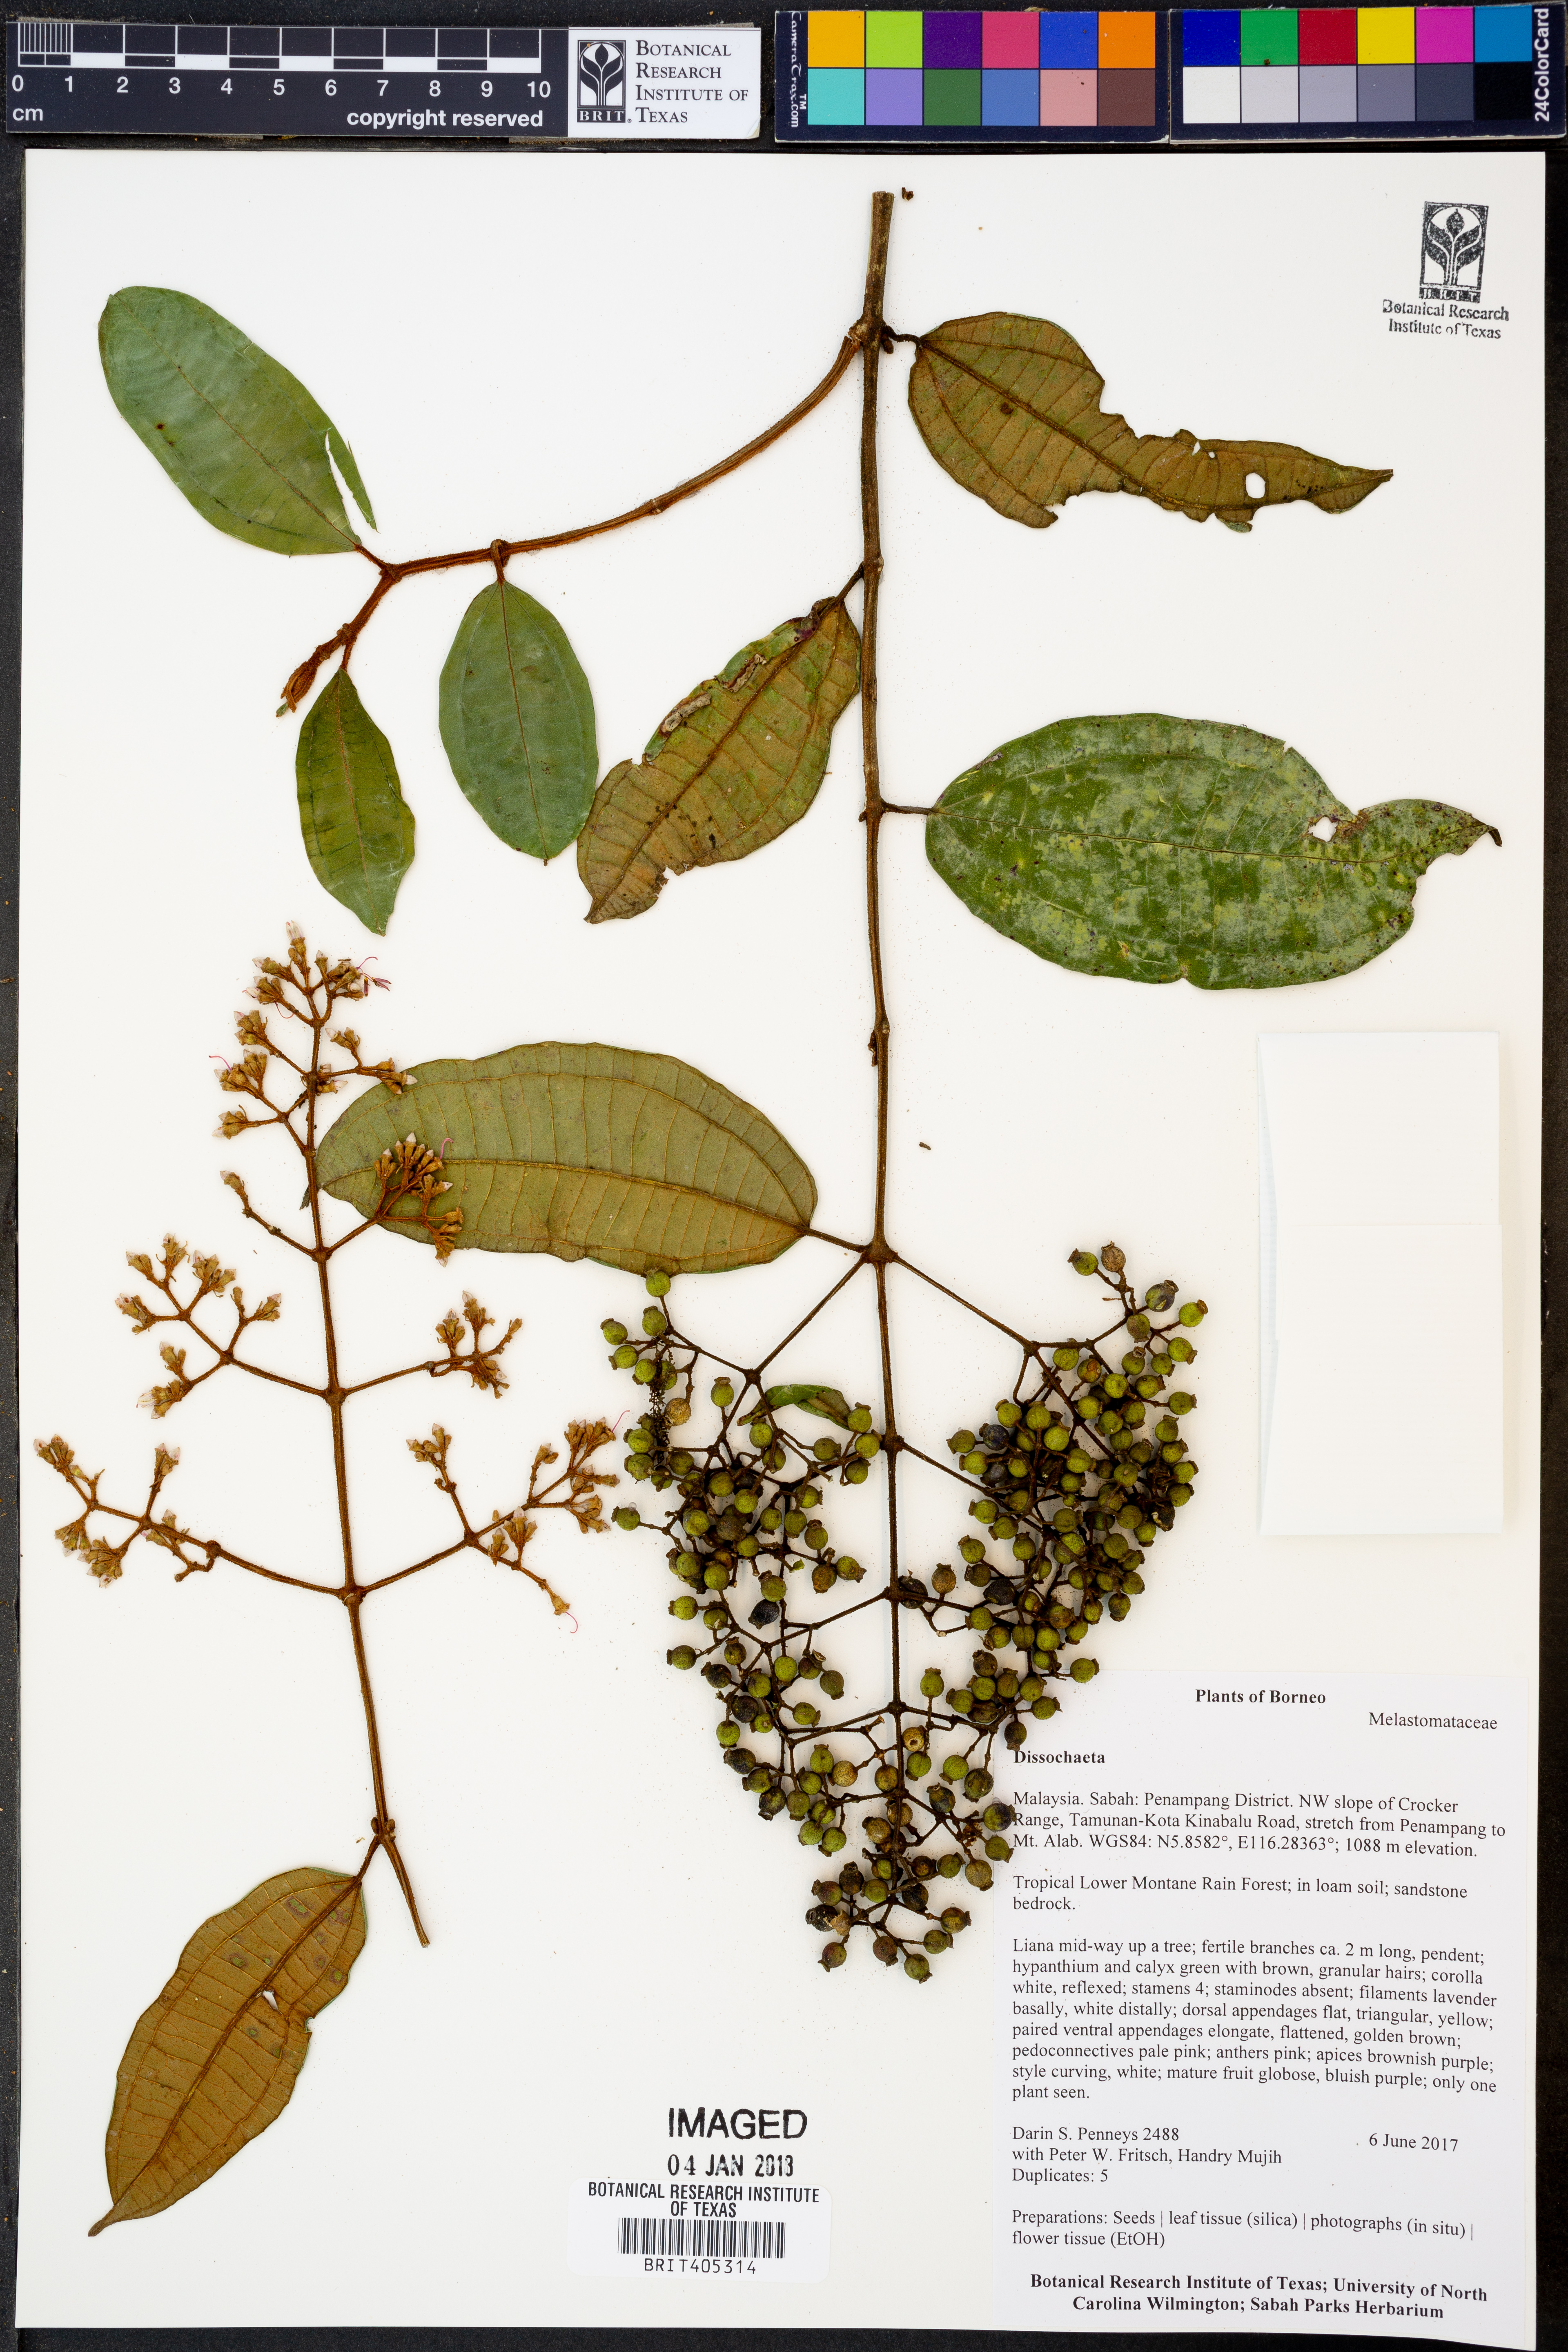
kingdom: Plantae
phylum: Tracheophyta
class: Magnoliopsida
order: Myrtales
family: Melastomataceae
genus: Dissochaeta
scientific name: Dissochaeta
